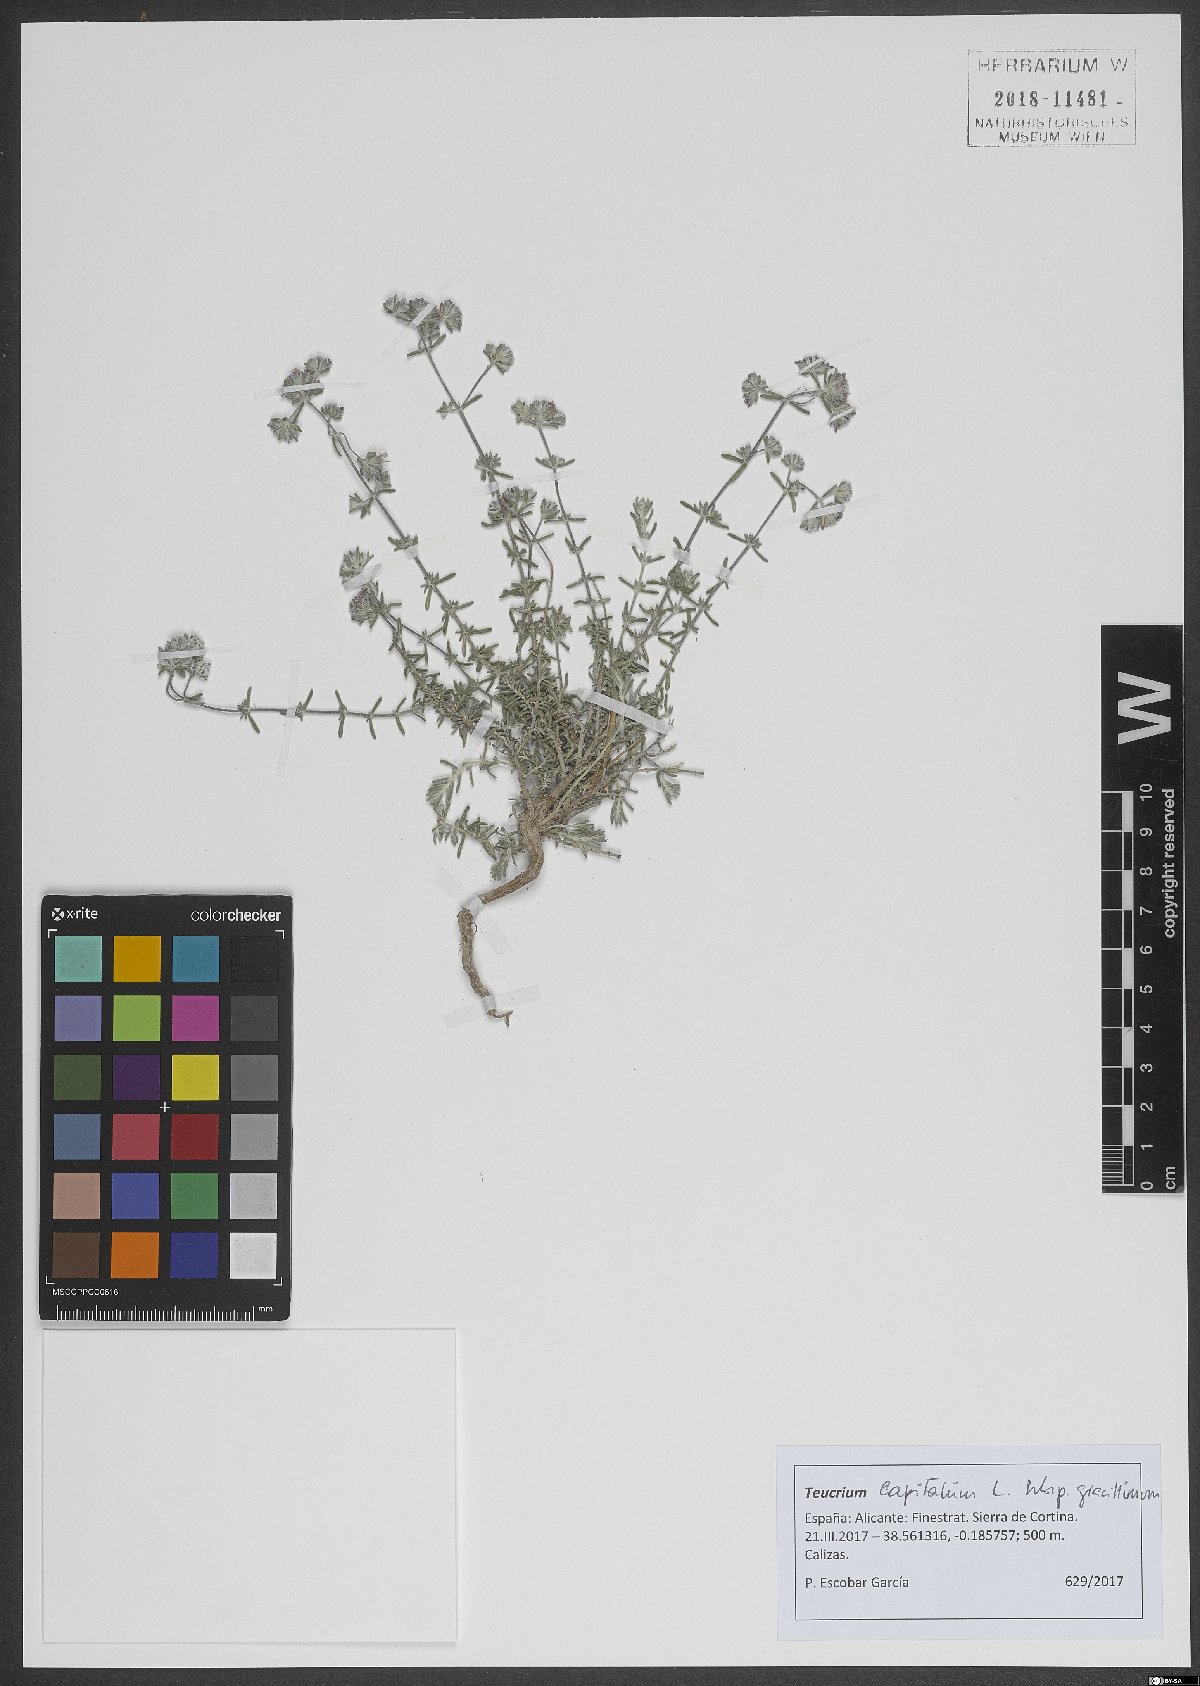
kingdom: Plantae
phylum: Tracheophyta
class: Magnoliopsida
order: Lamiales
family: Lamiaceae
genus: Teucrium
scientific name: Teucrium capitatum
